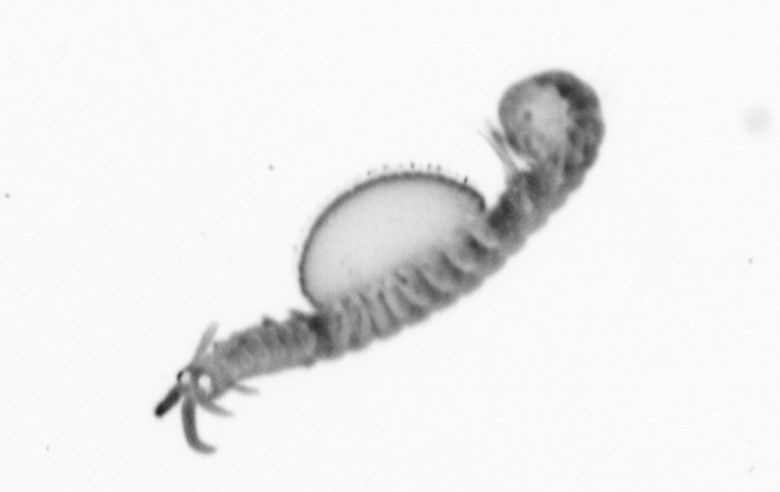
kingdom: Animalia
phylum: Annelida
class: Polychaeta
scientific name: Polychaeta
